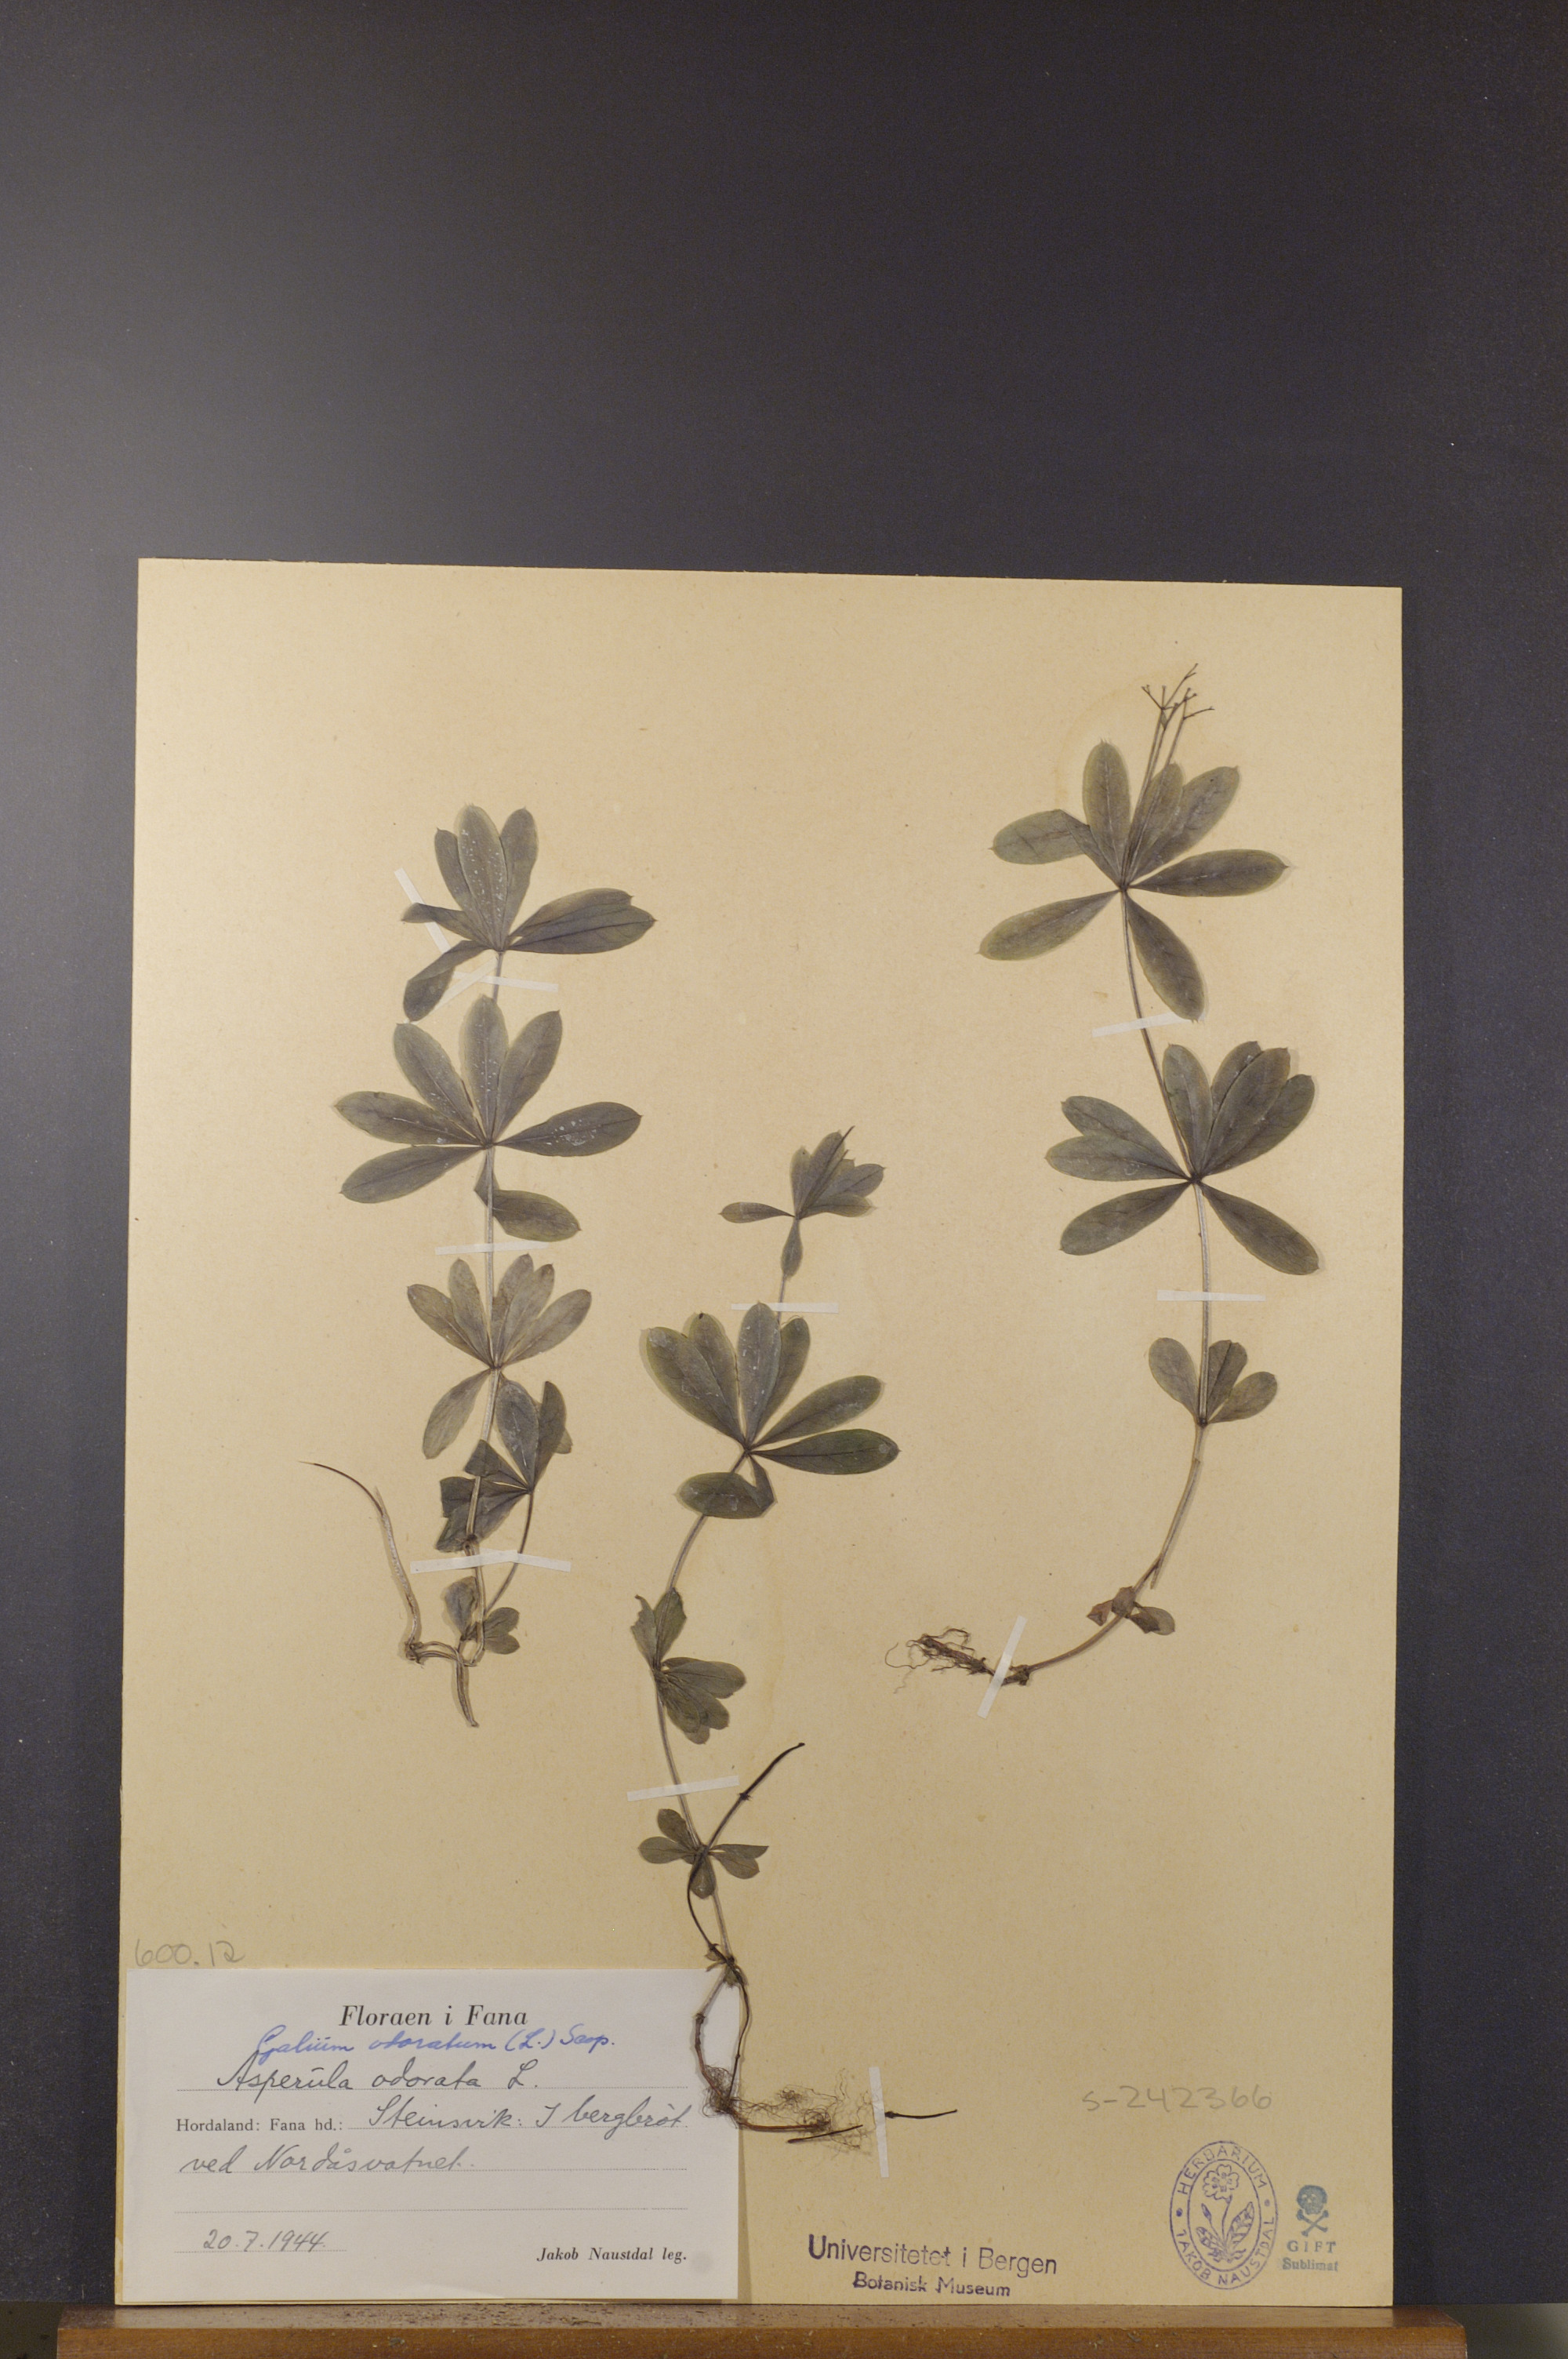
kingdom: Plantae
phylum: Tracheophyta
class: Magnoliopsida
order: Gentianales
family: Rubiaceae
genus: Galium
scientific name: Galium odoratum
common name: Sweet woodruff
